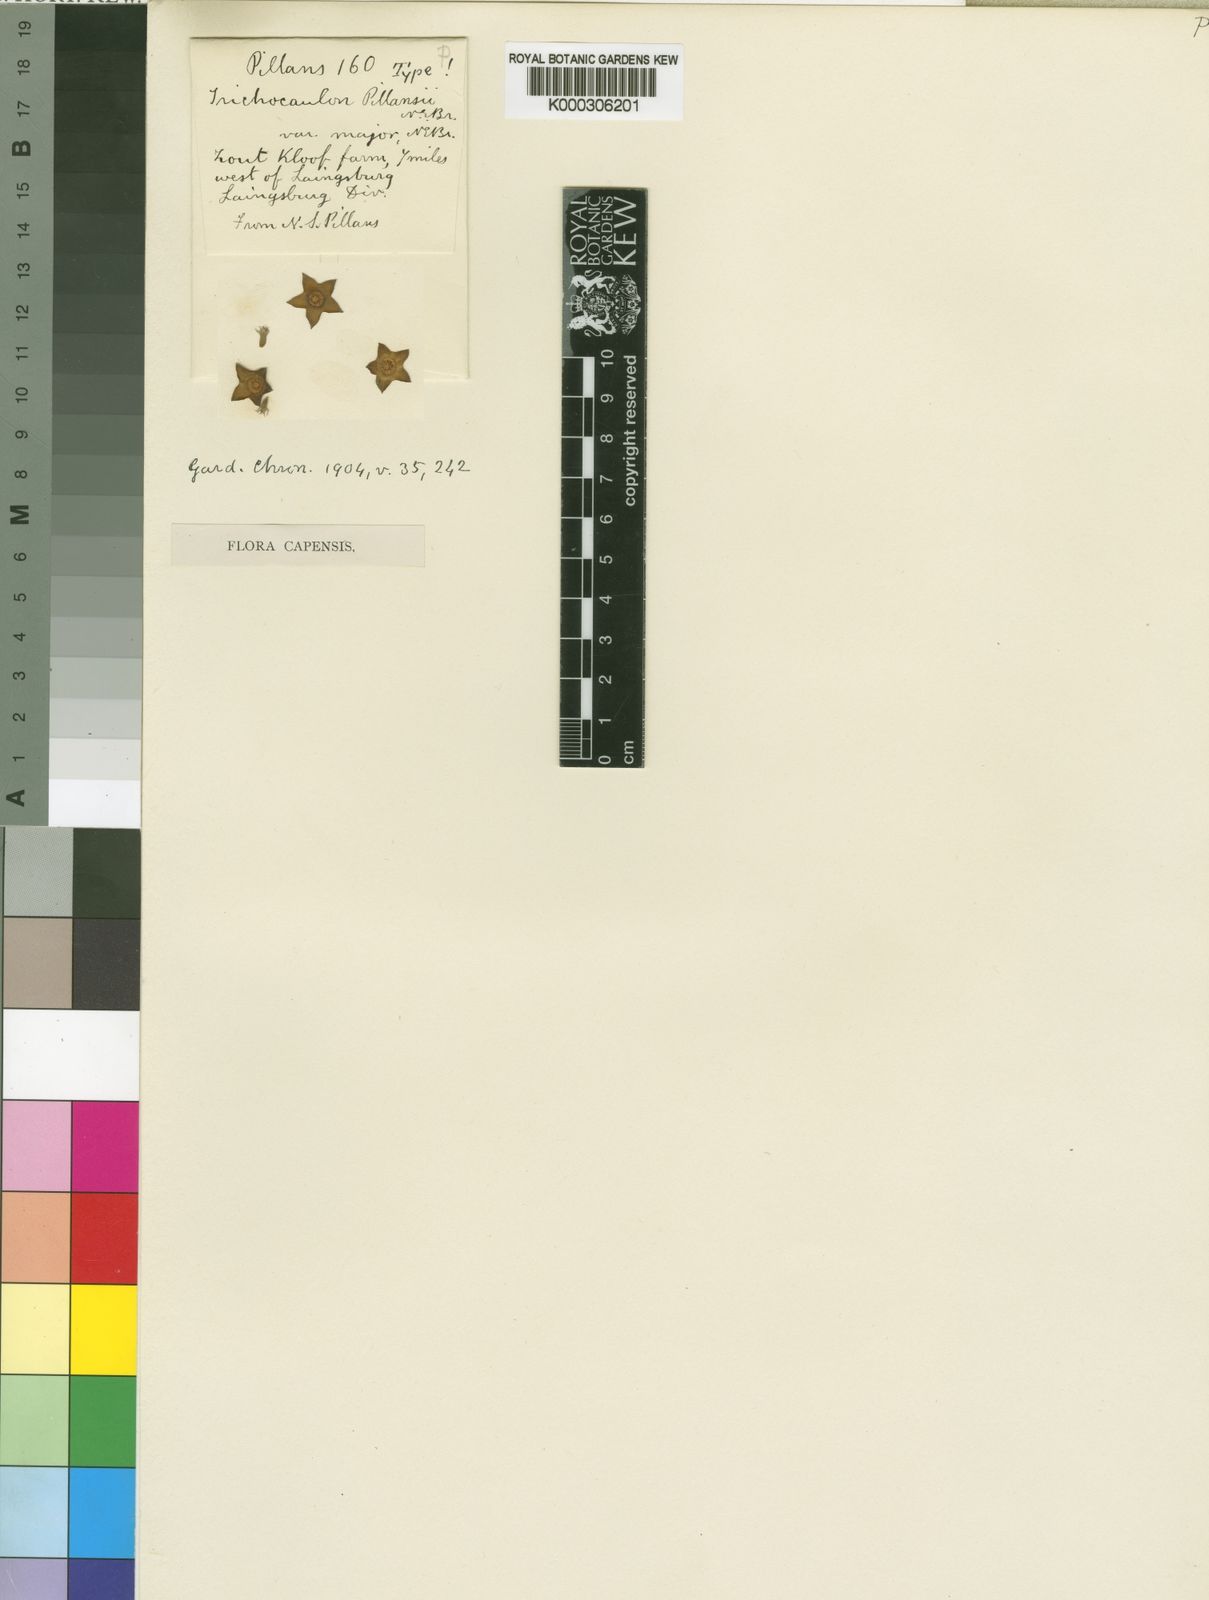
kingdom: Plantae
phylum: Tracheophyta
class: Magnoliopsida
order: Gentianales
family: Apocynaceae
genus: Ceropegia
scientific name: Ceropegia gordonii
